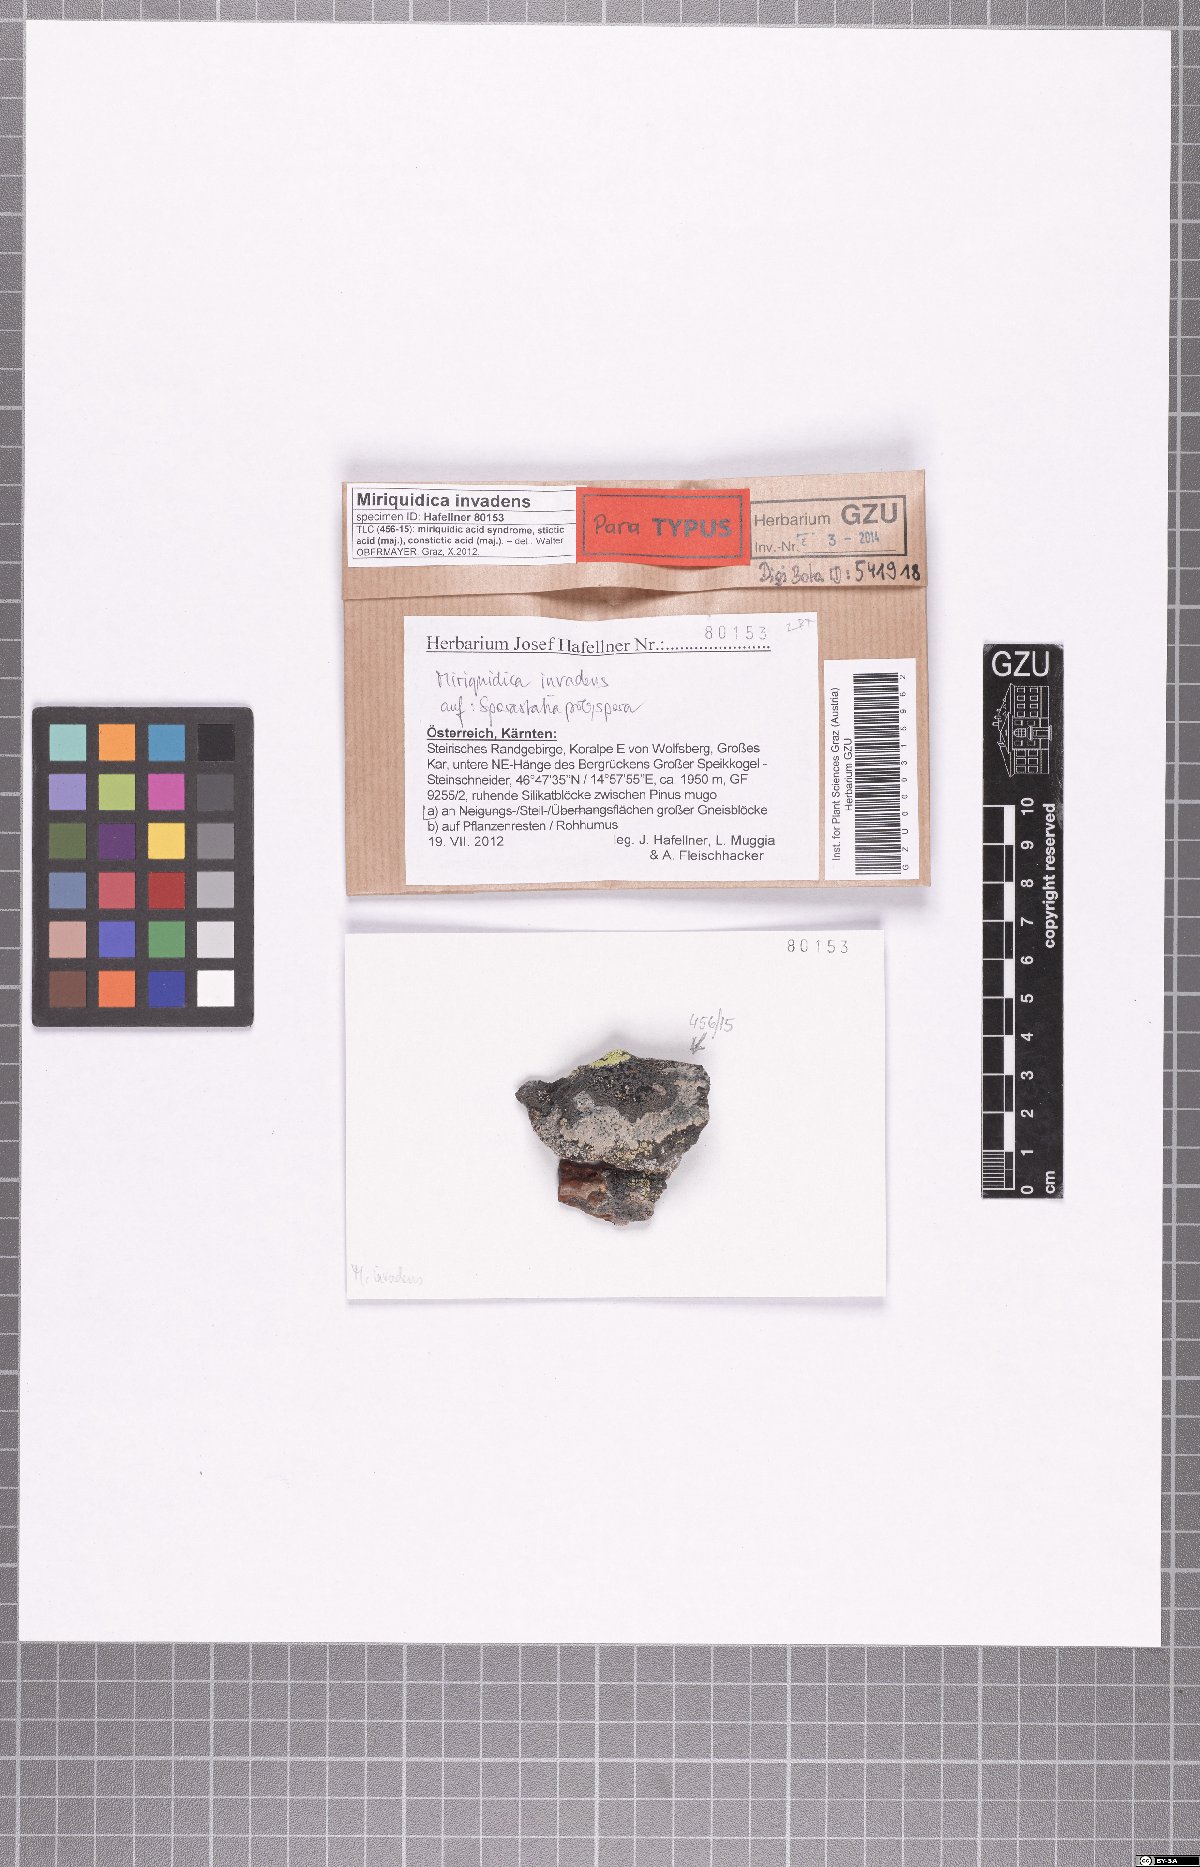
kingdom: Fungi
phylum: Ascomycota
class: Lecanoromycetes
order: Lecanorales
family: Lecanoraceae
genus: Miriquidica
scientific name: Miriquidica invadens
